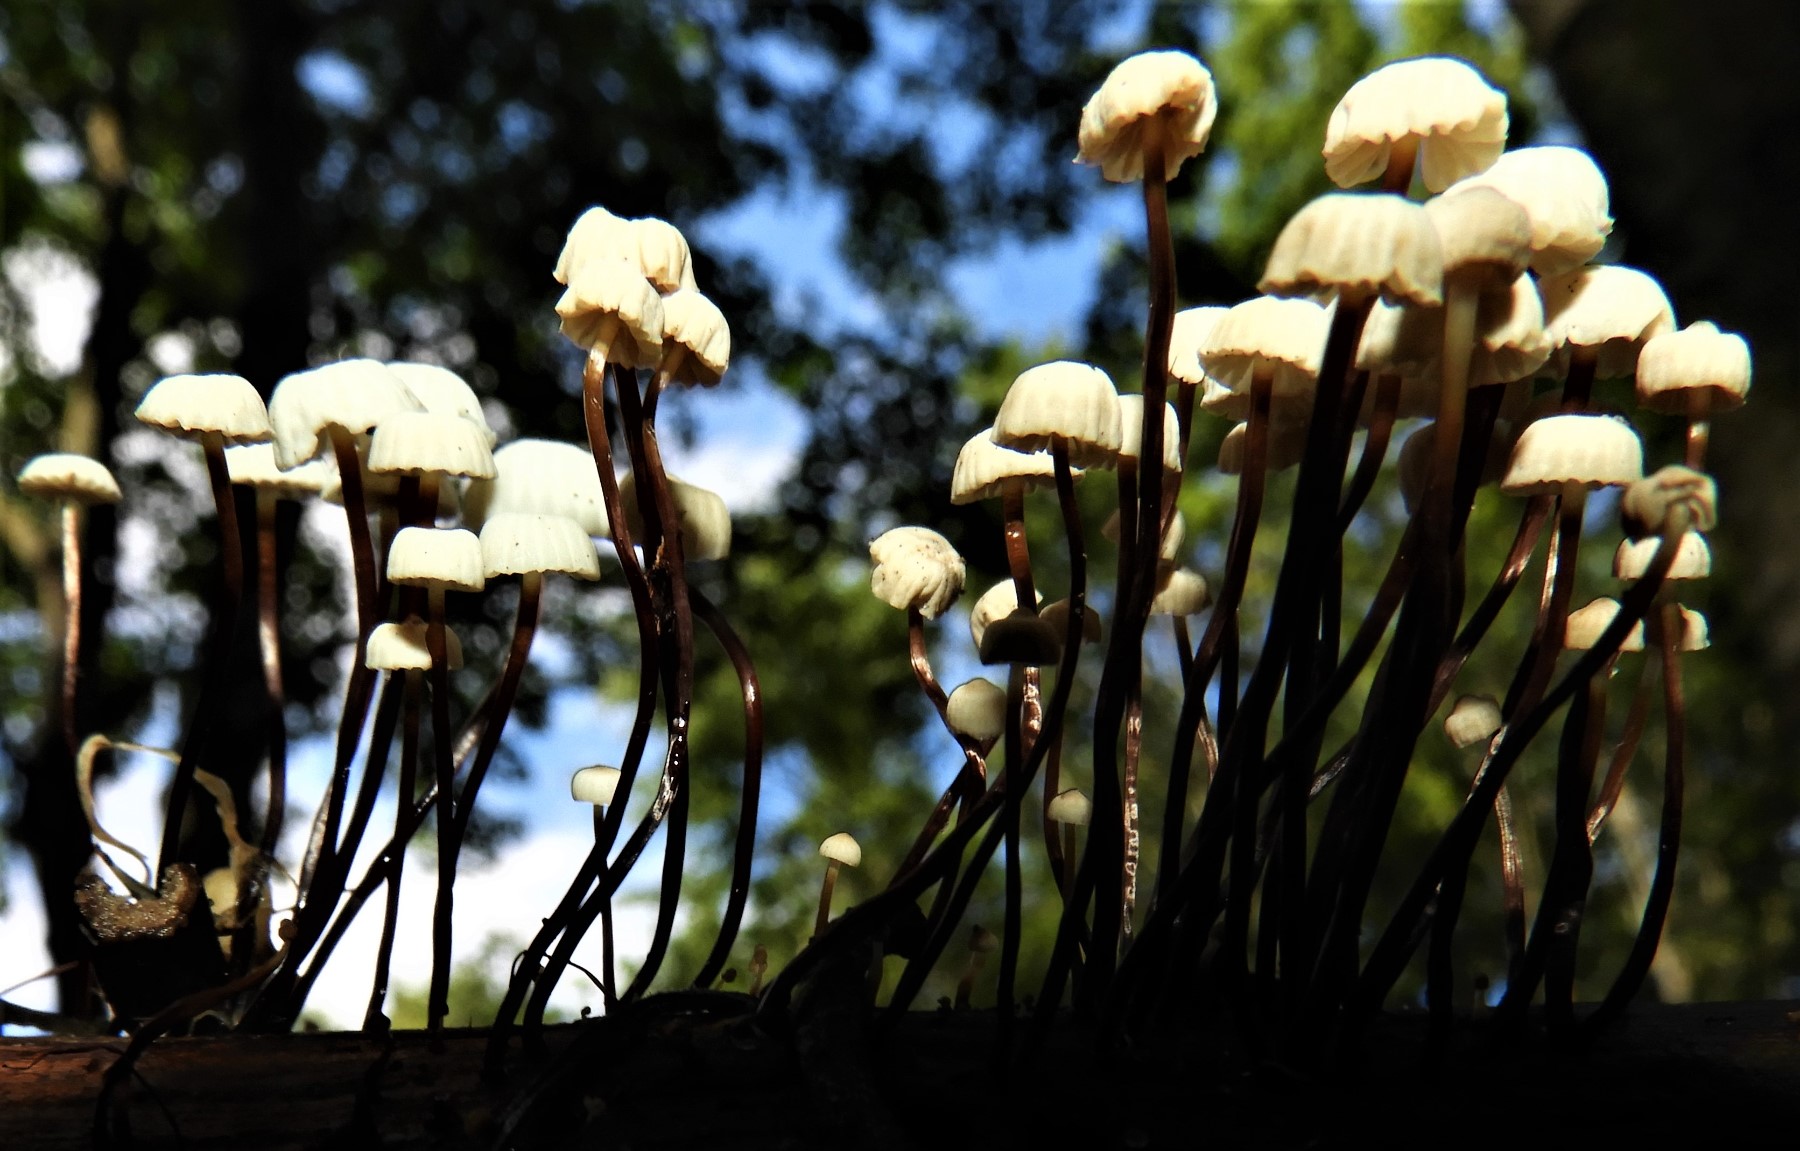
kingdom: Fungi
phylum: Basidiomycota
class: Agaricomycetes
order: Agaricales
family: Marasmiaceae
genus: Marasmius
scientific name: Marasmius rotula
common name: hjul-bruskhat
